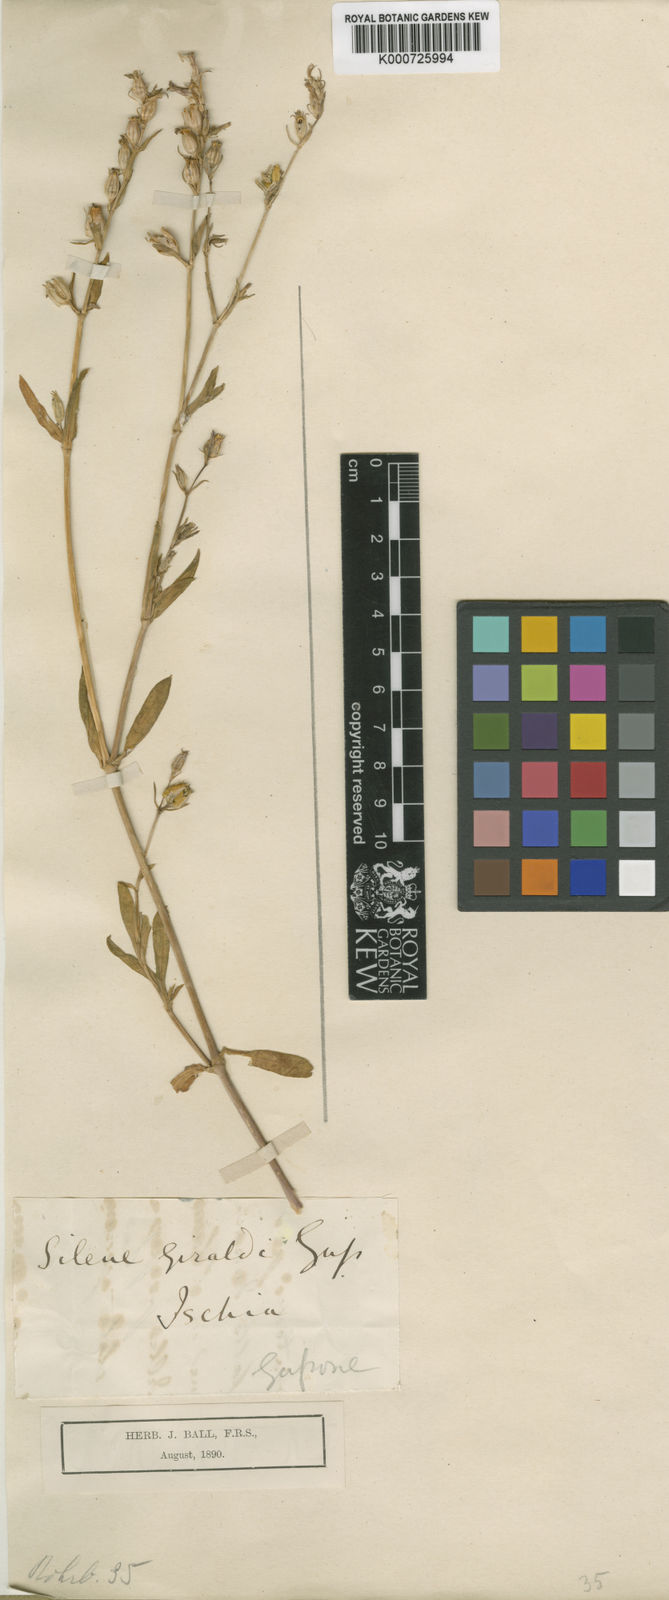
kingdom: Plantae
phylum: Tracheophyta
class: Magnoliopsida
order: Caryophyllales
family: Caryophyllaceae
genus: Silene
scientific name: Silene gallica
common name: Small-flowered catchfly
